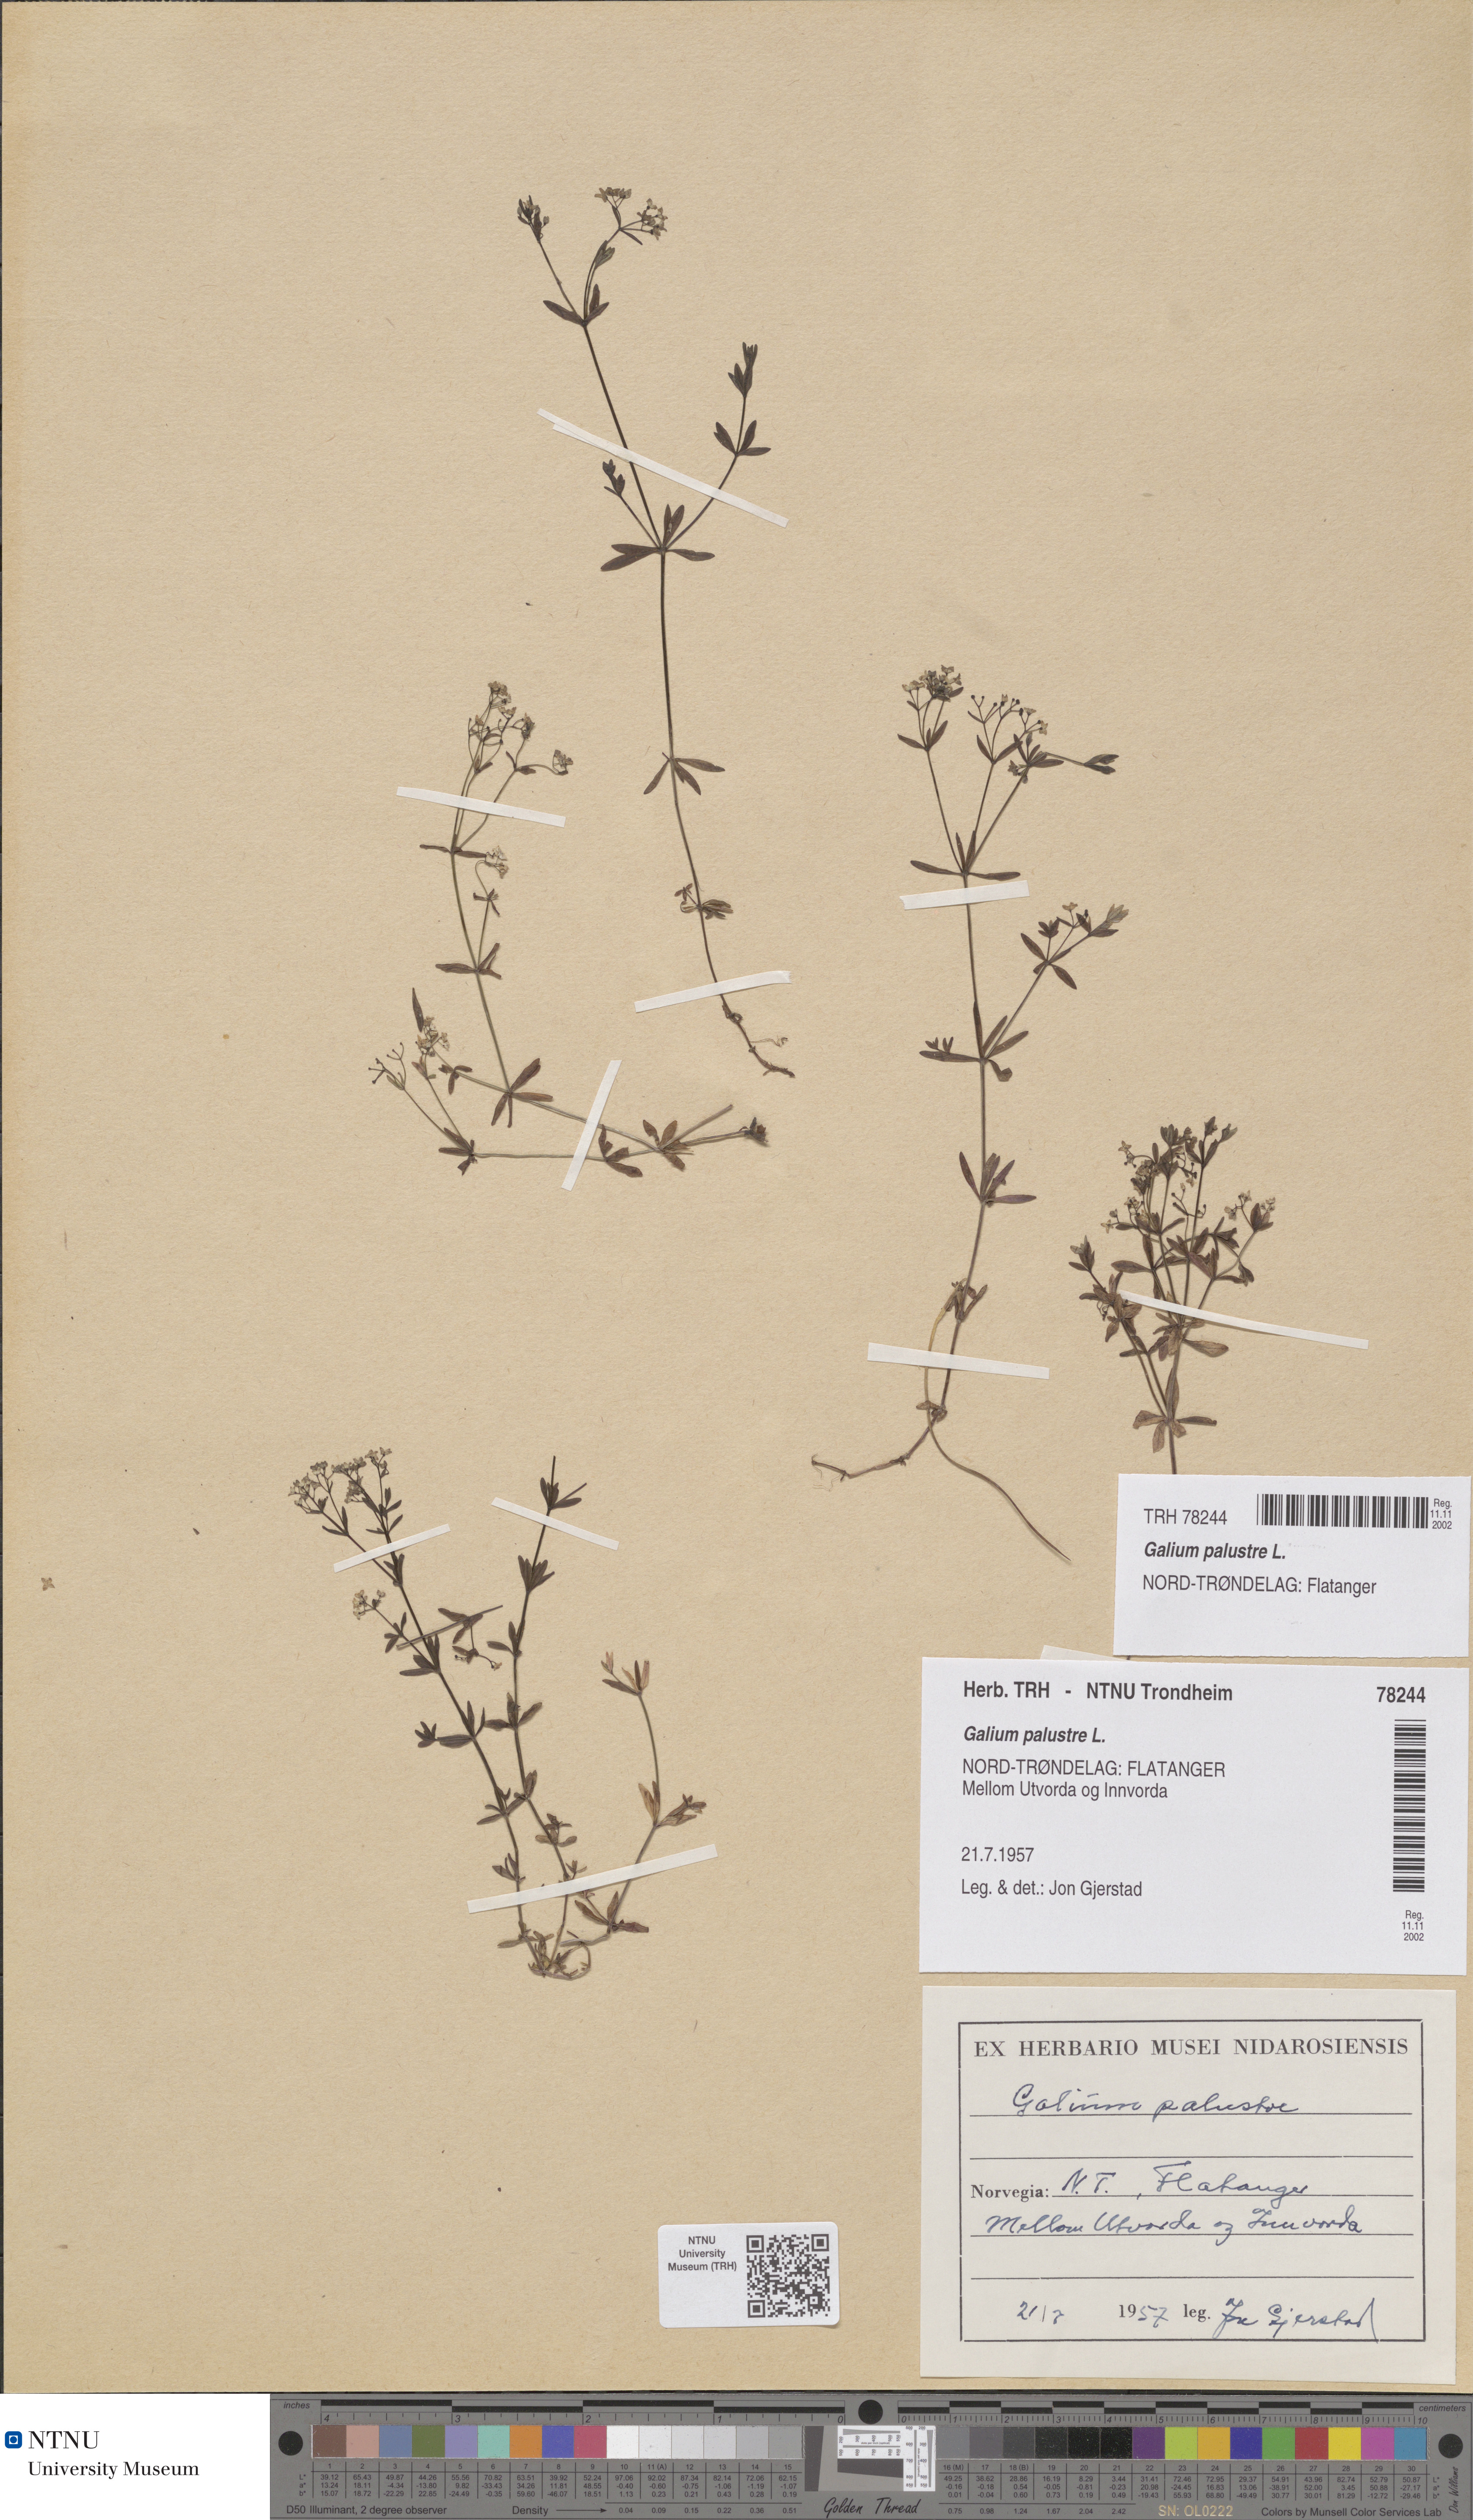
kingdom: Plantae
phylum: Tracheophyta
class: Magnoliopsida
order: Gentianales
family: Rubiaceae
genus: Galium
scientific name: Galium palustre
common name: Common marsh-bedstraw
